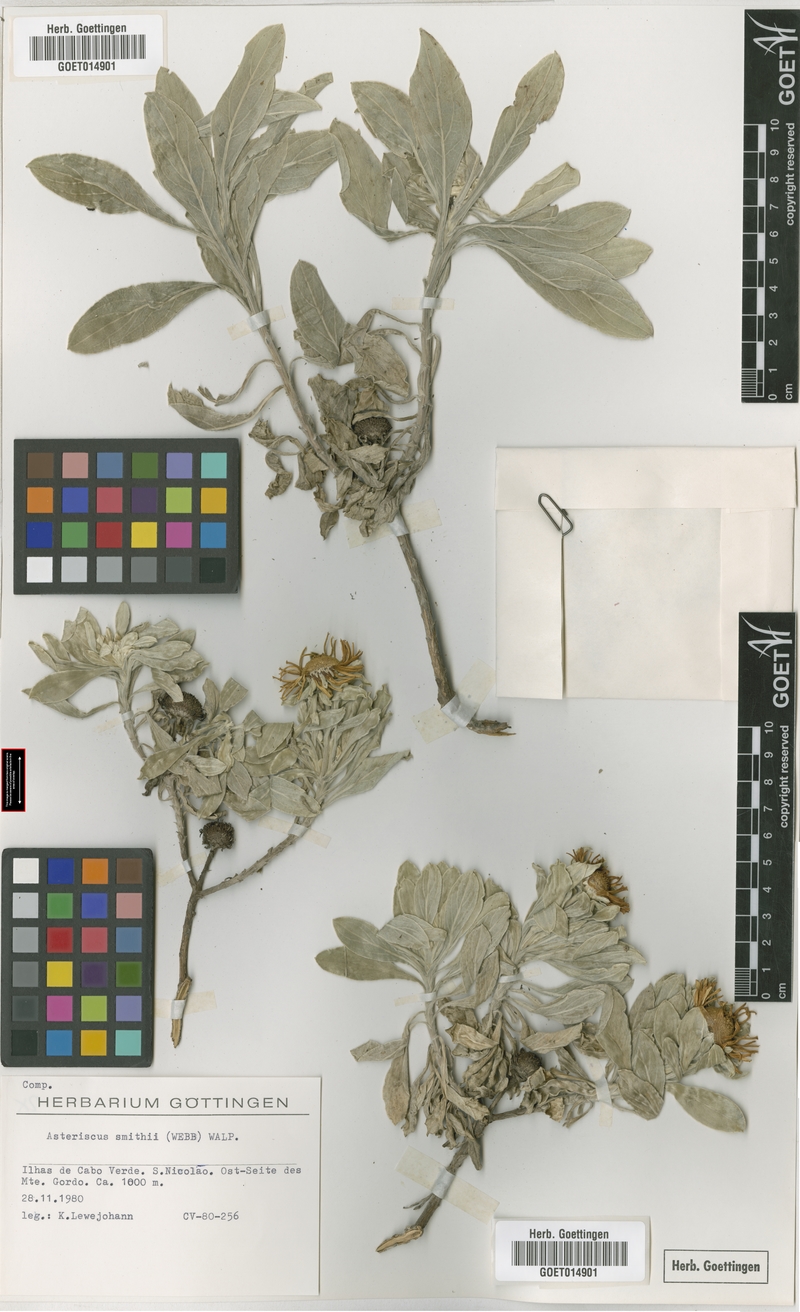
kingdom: Plantae
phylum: Tracheophyta
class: Magnoliopsida
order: Asterales
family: Asteraceae
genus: Asteriscus
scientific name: Asteriscus smithii
